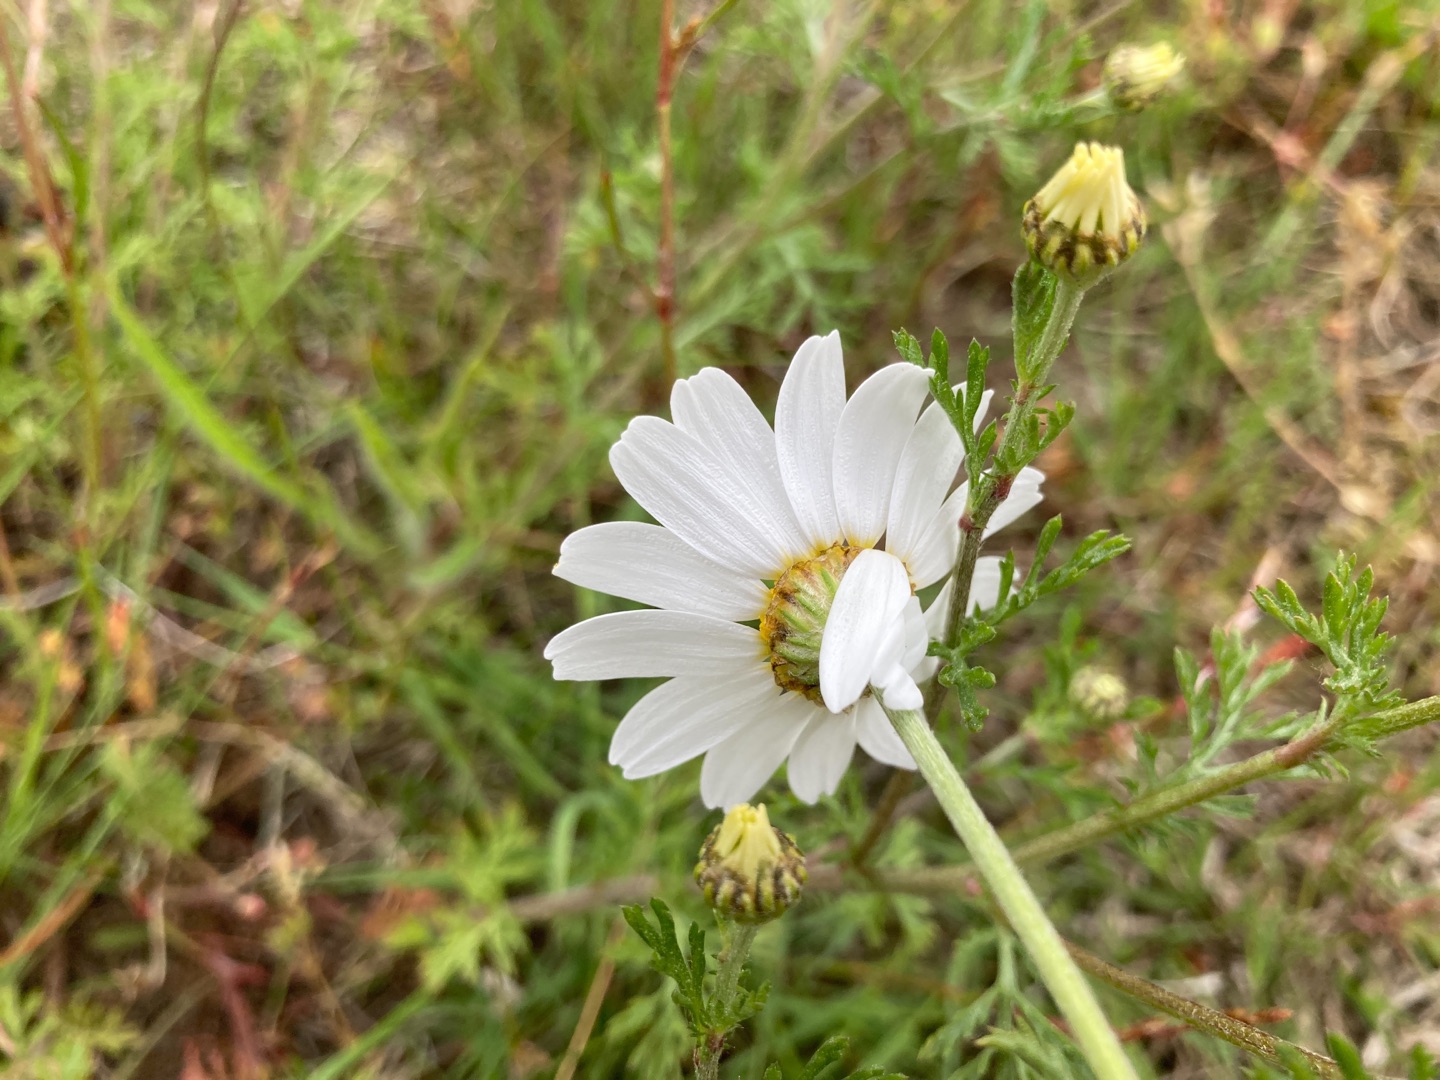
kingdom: Plantae
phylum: Tracheophyta
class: Magnoliopsida
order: Asterales
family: Asteraceae
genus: Anthemis
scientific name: Anthemis arvensis
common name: Ager-gåseurt
